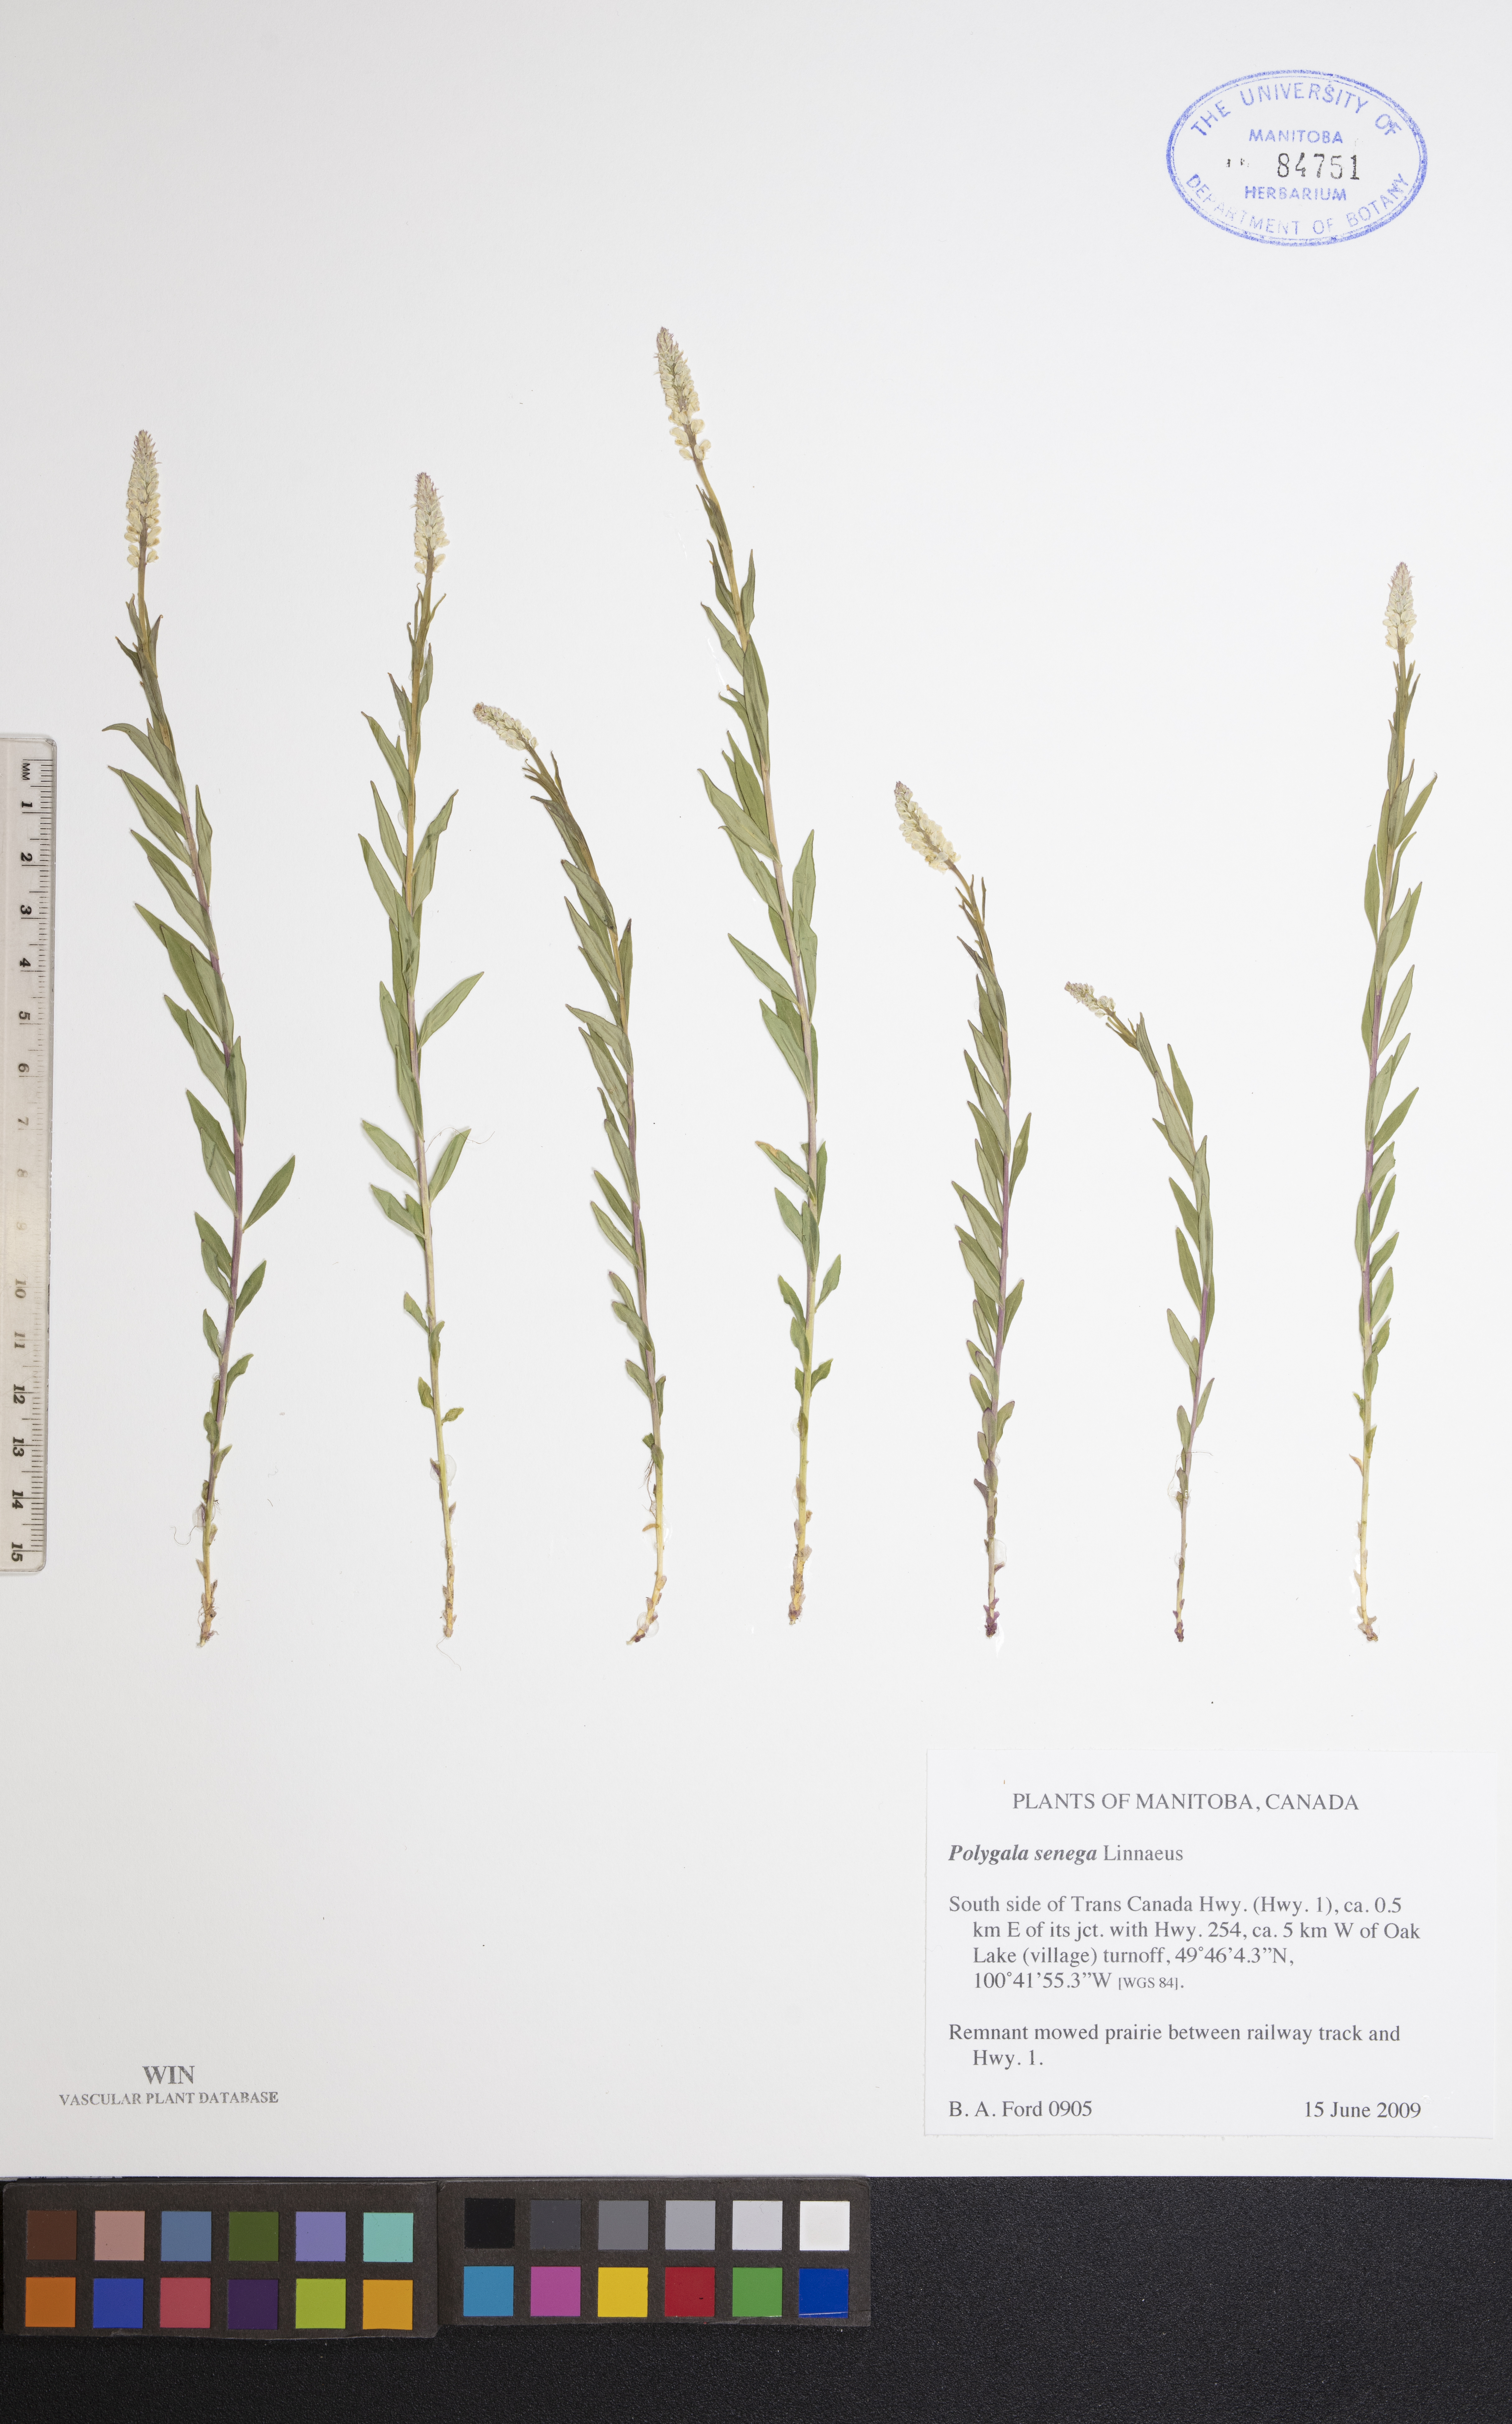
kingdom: Plantae
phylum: Tracheophyta
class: Magnoliopsida
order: Fabales
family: Polygalaceae
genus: Polygala
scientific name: Polygala senega
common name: Seneca snakeroot
